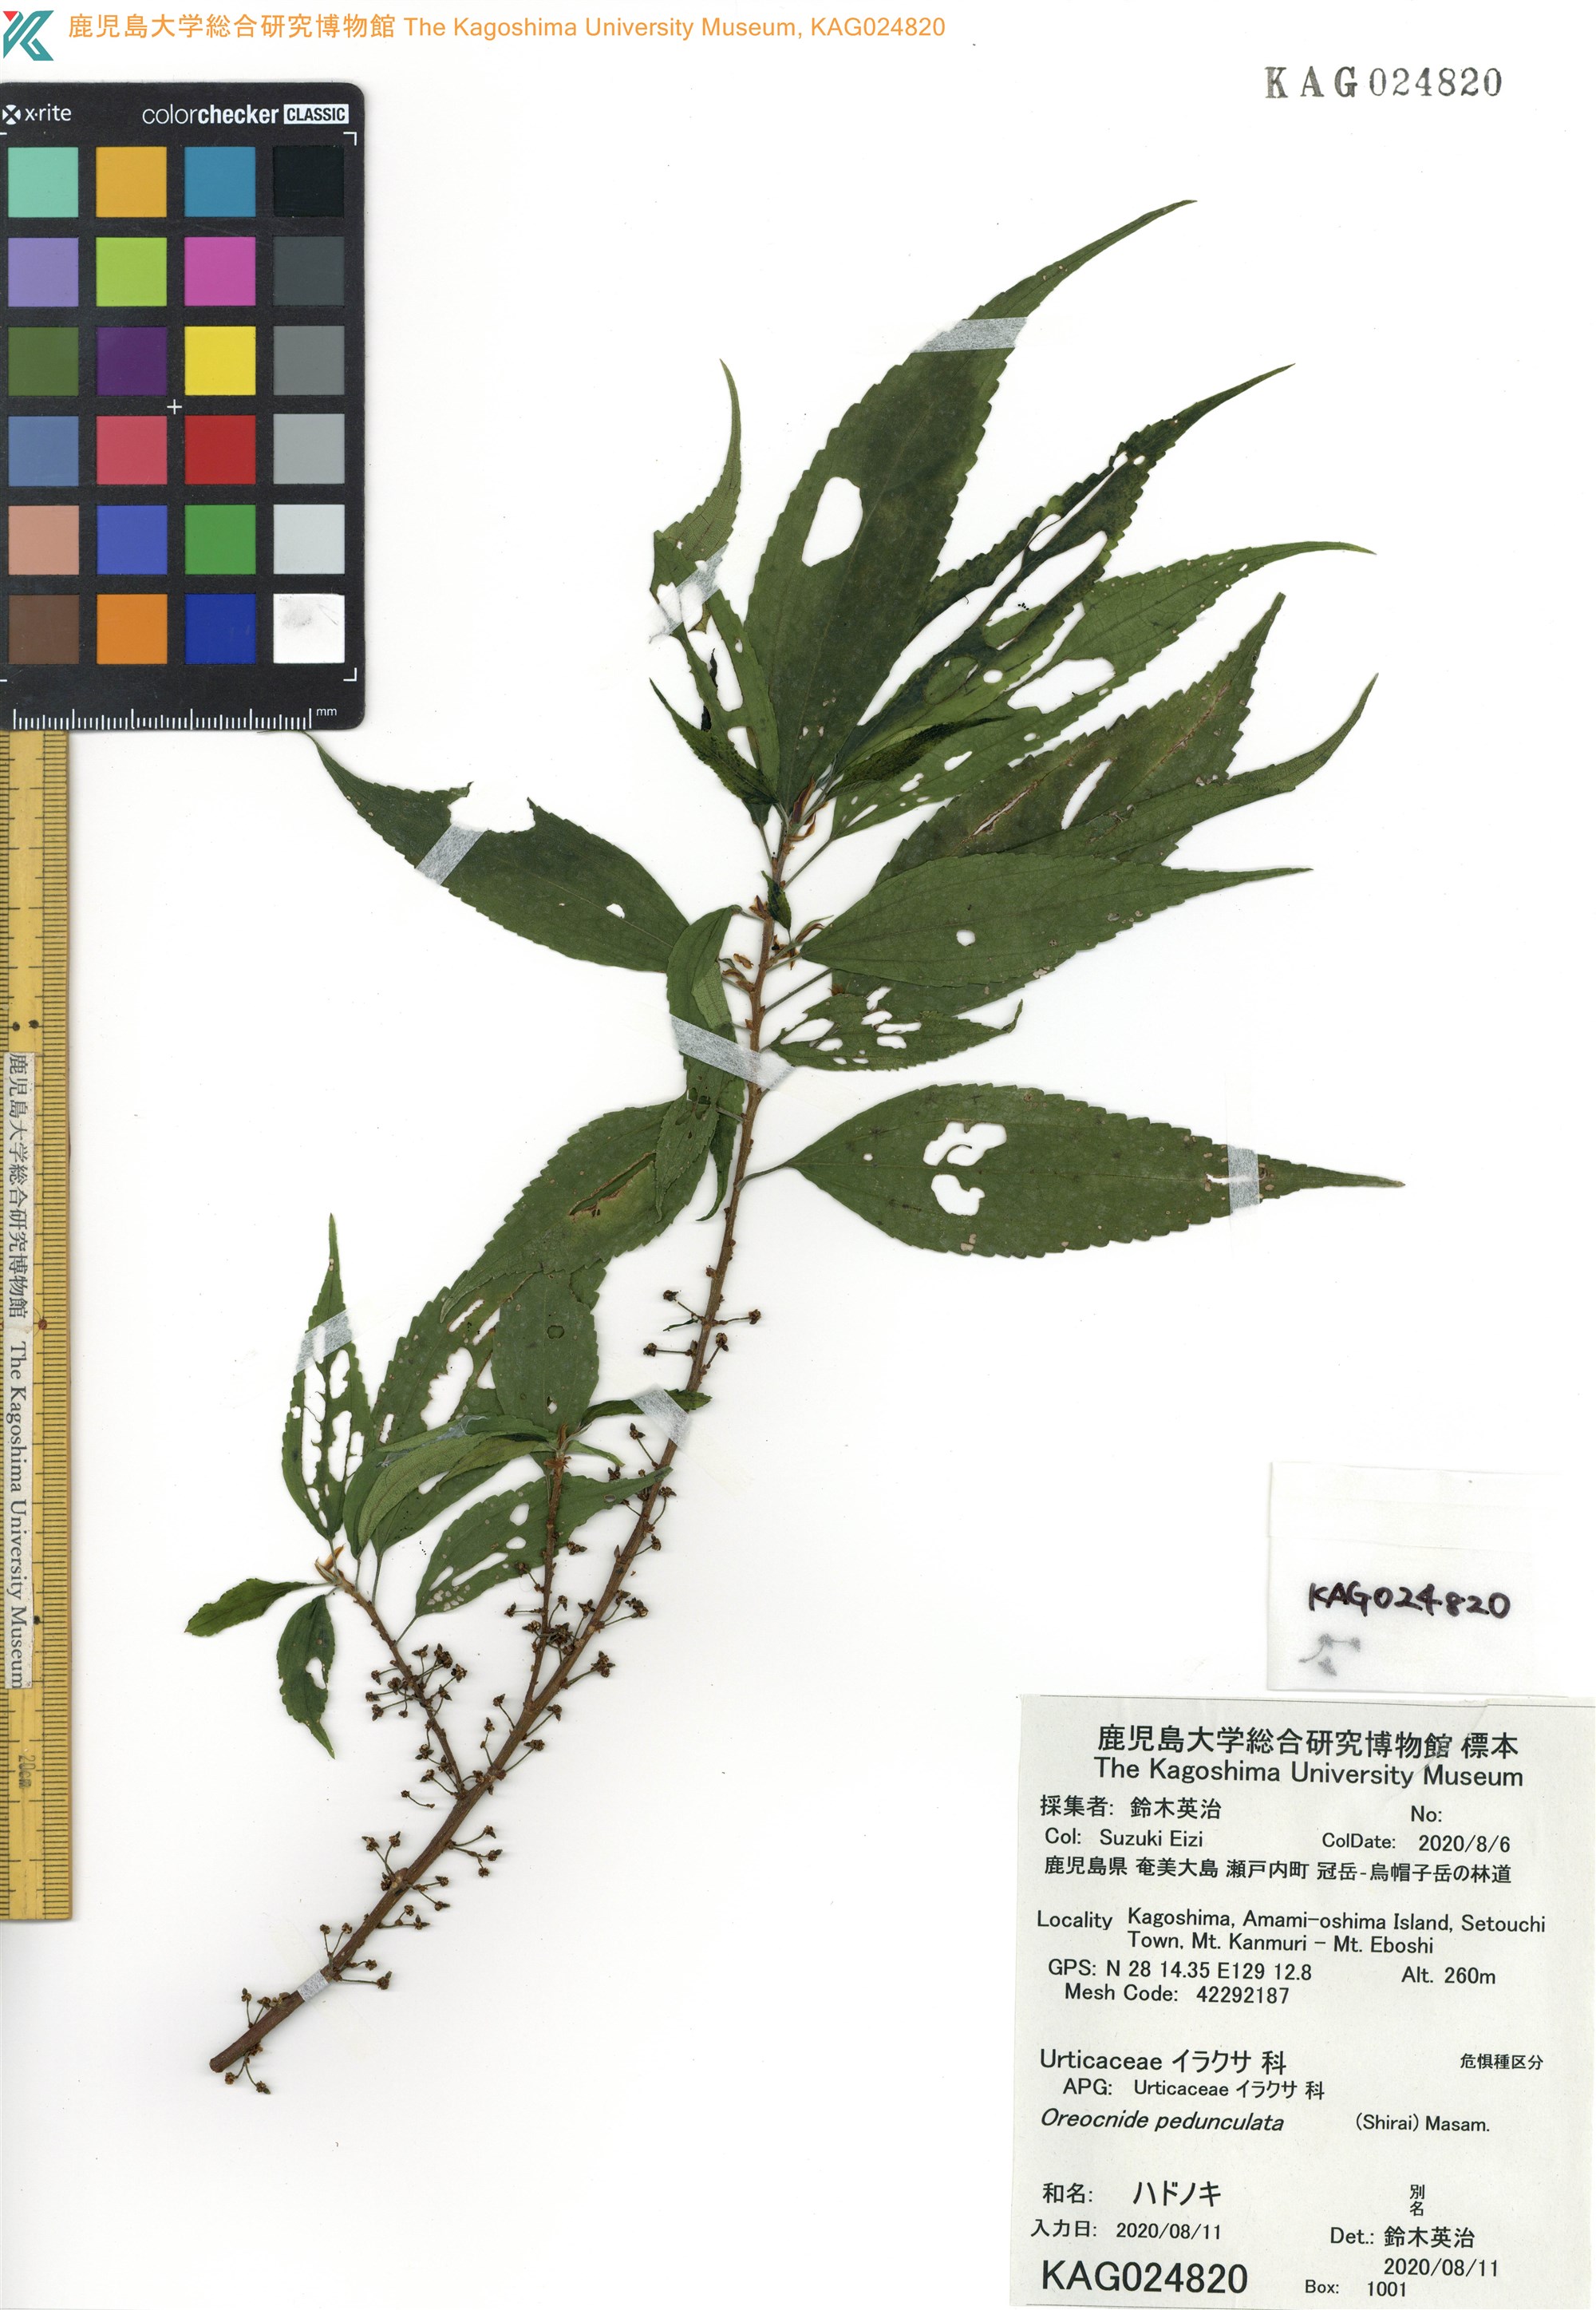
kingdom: Plantae
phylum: Tracheophyta
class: Magnoliopsida
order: Rosales
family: Urticaceae
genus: Oreocnide
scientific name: Oreocnide pedunculata
